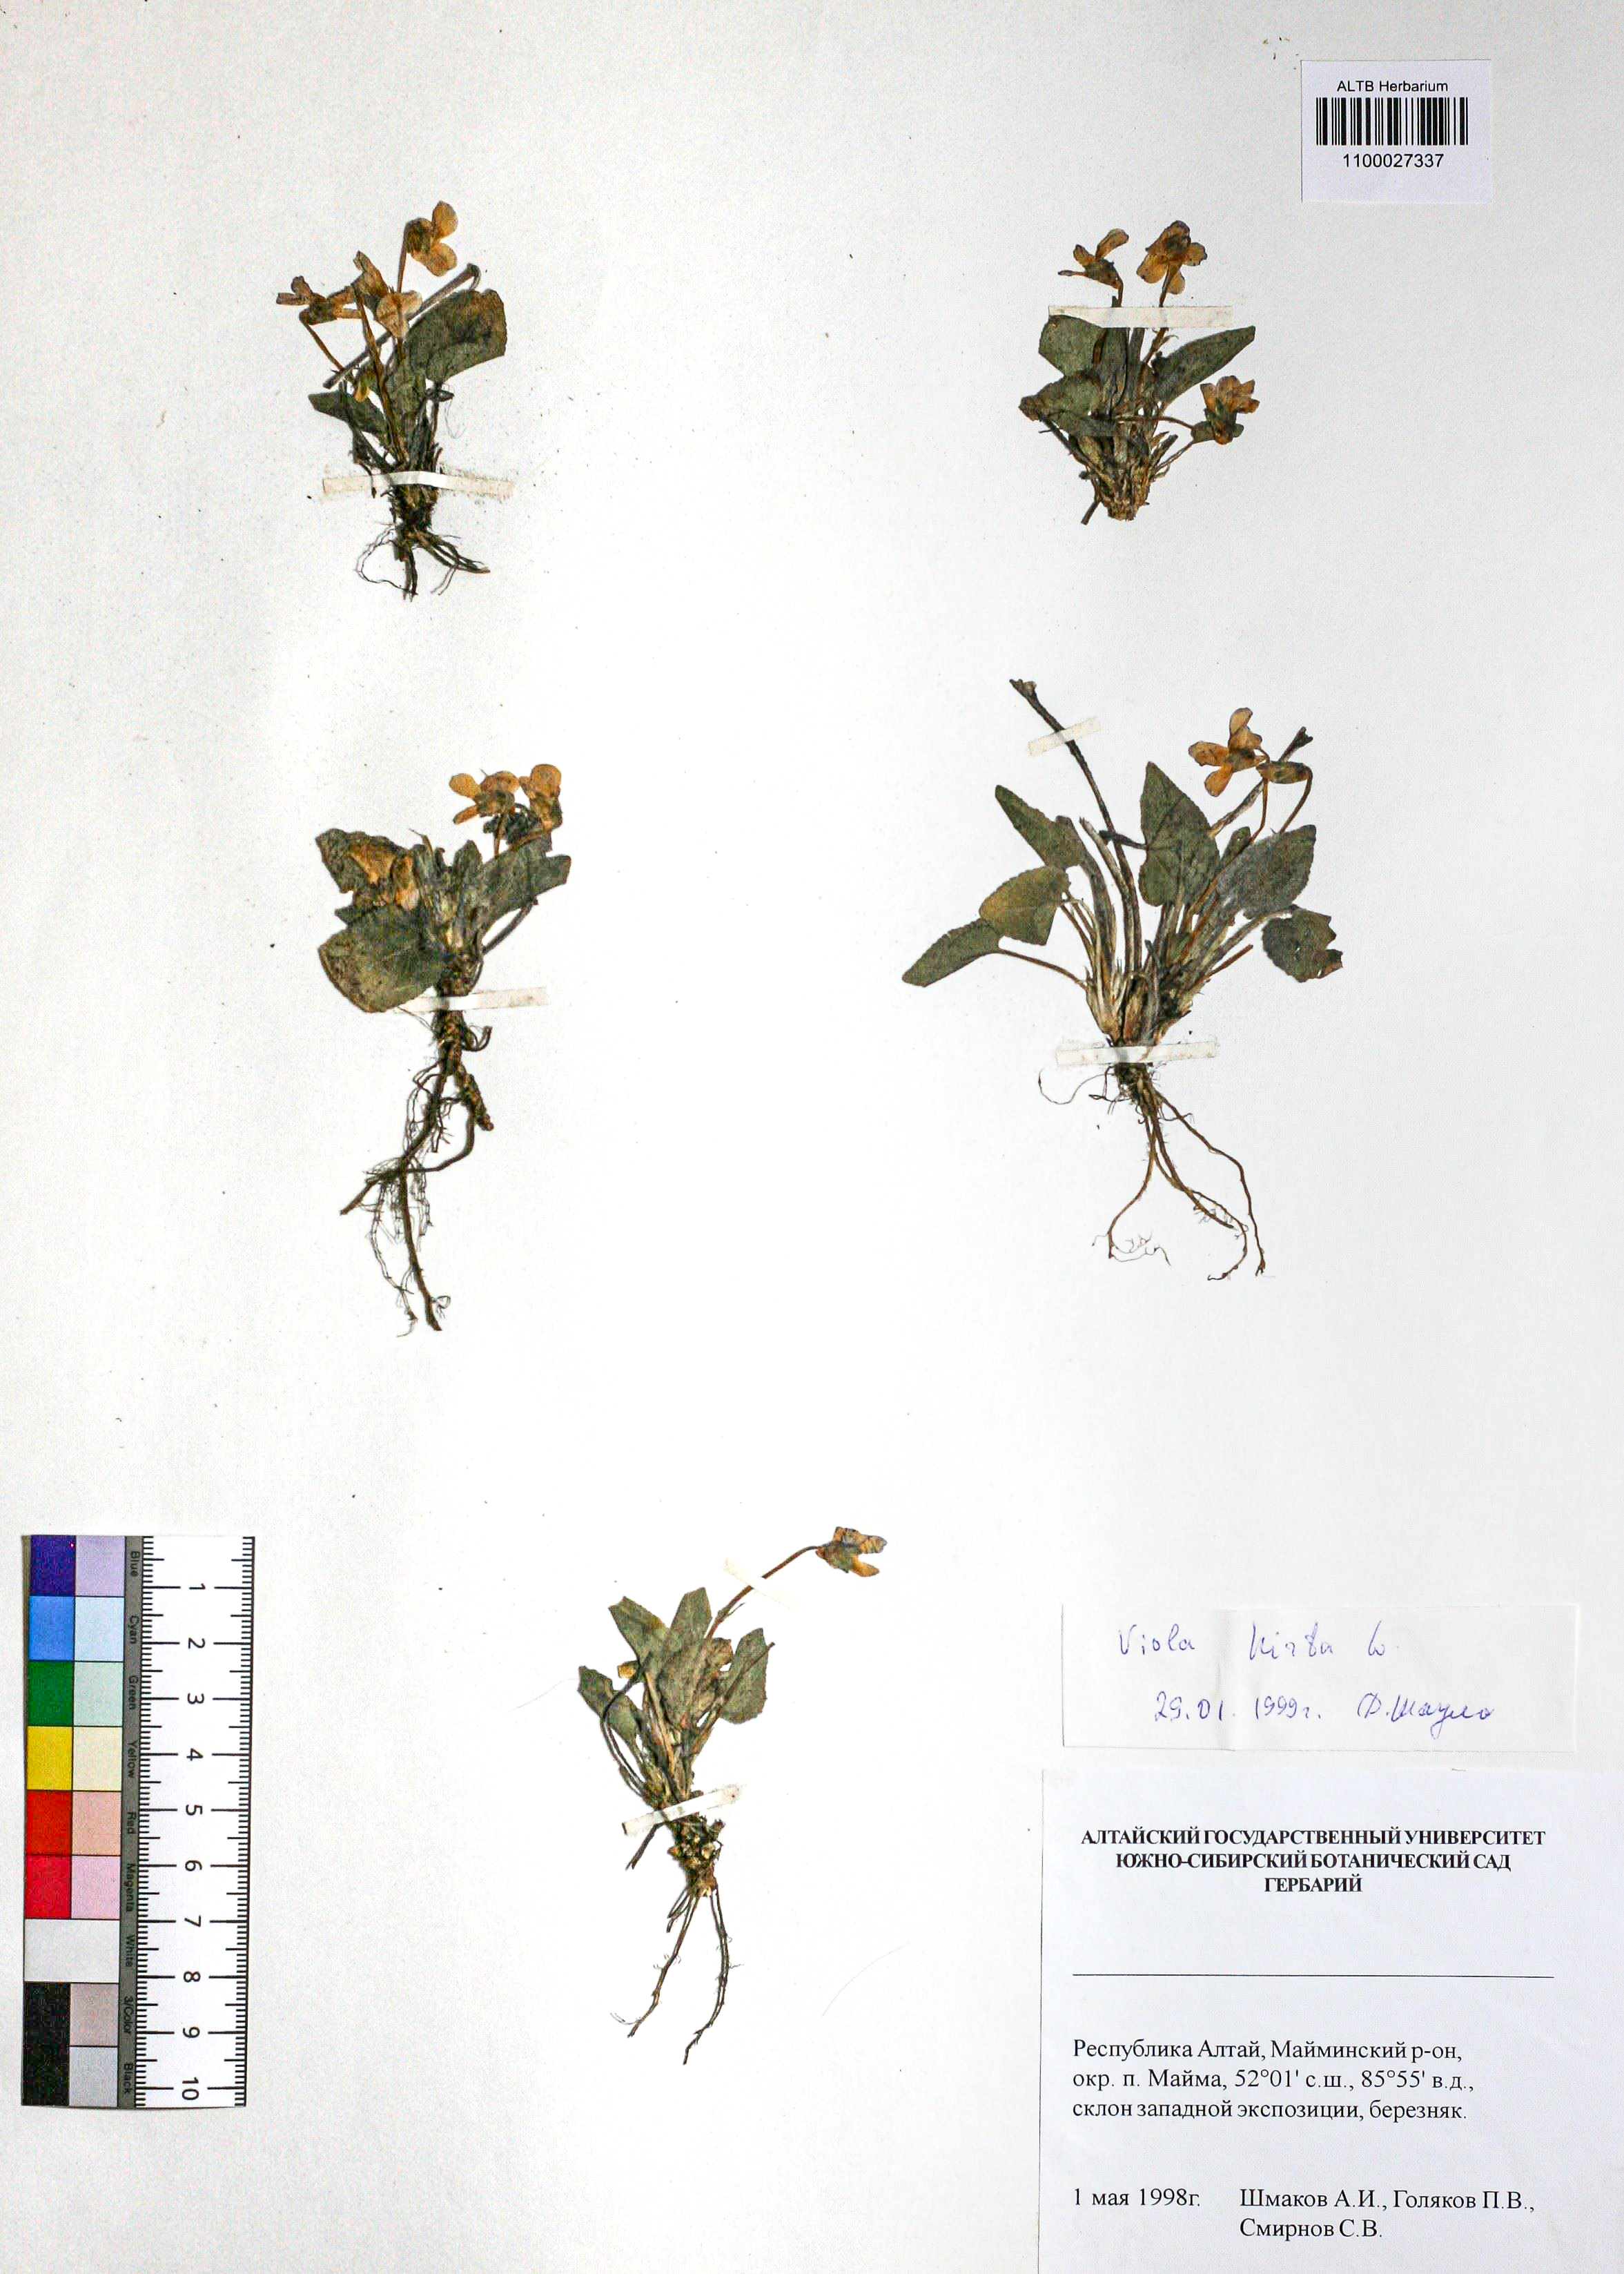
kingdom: Plantae
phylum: Tracheophyta
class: Magnoliopsida
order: Malpighiales
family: Violaceae
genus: Viola
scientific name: Viola hirta
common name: Hairy violet
